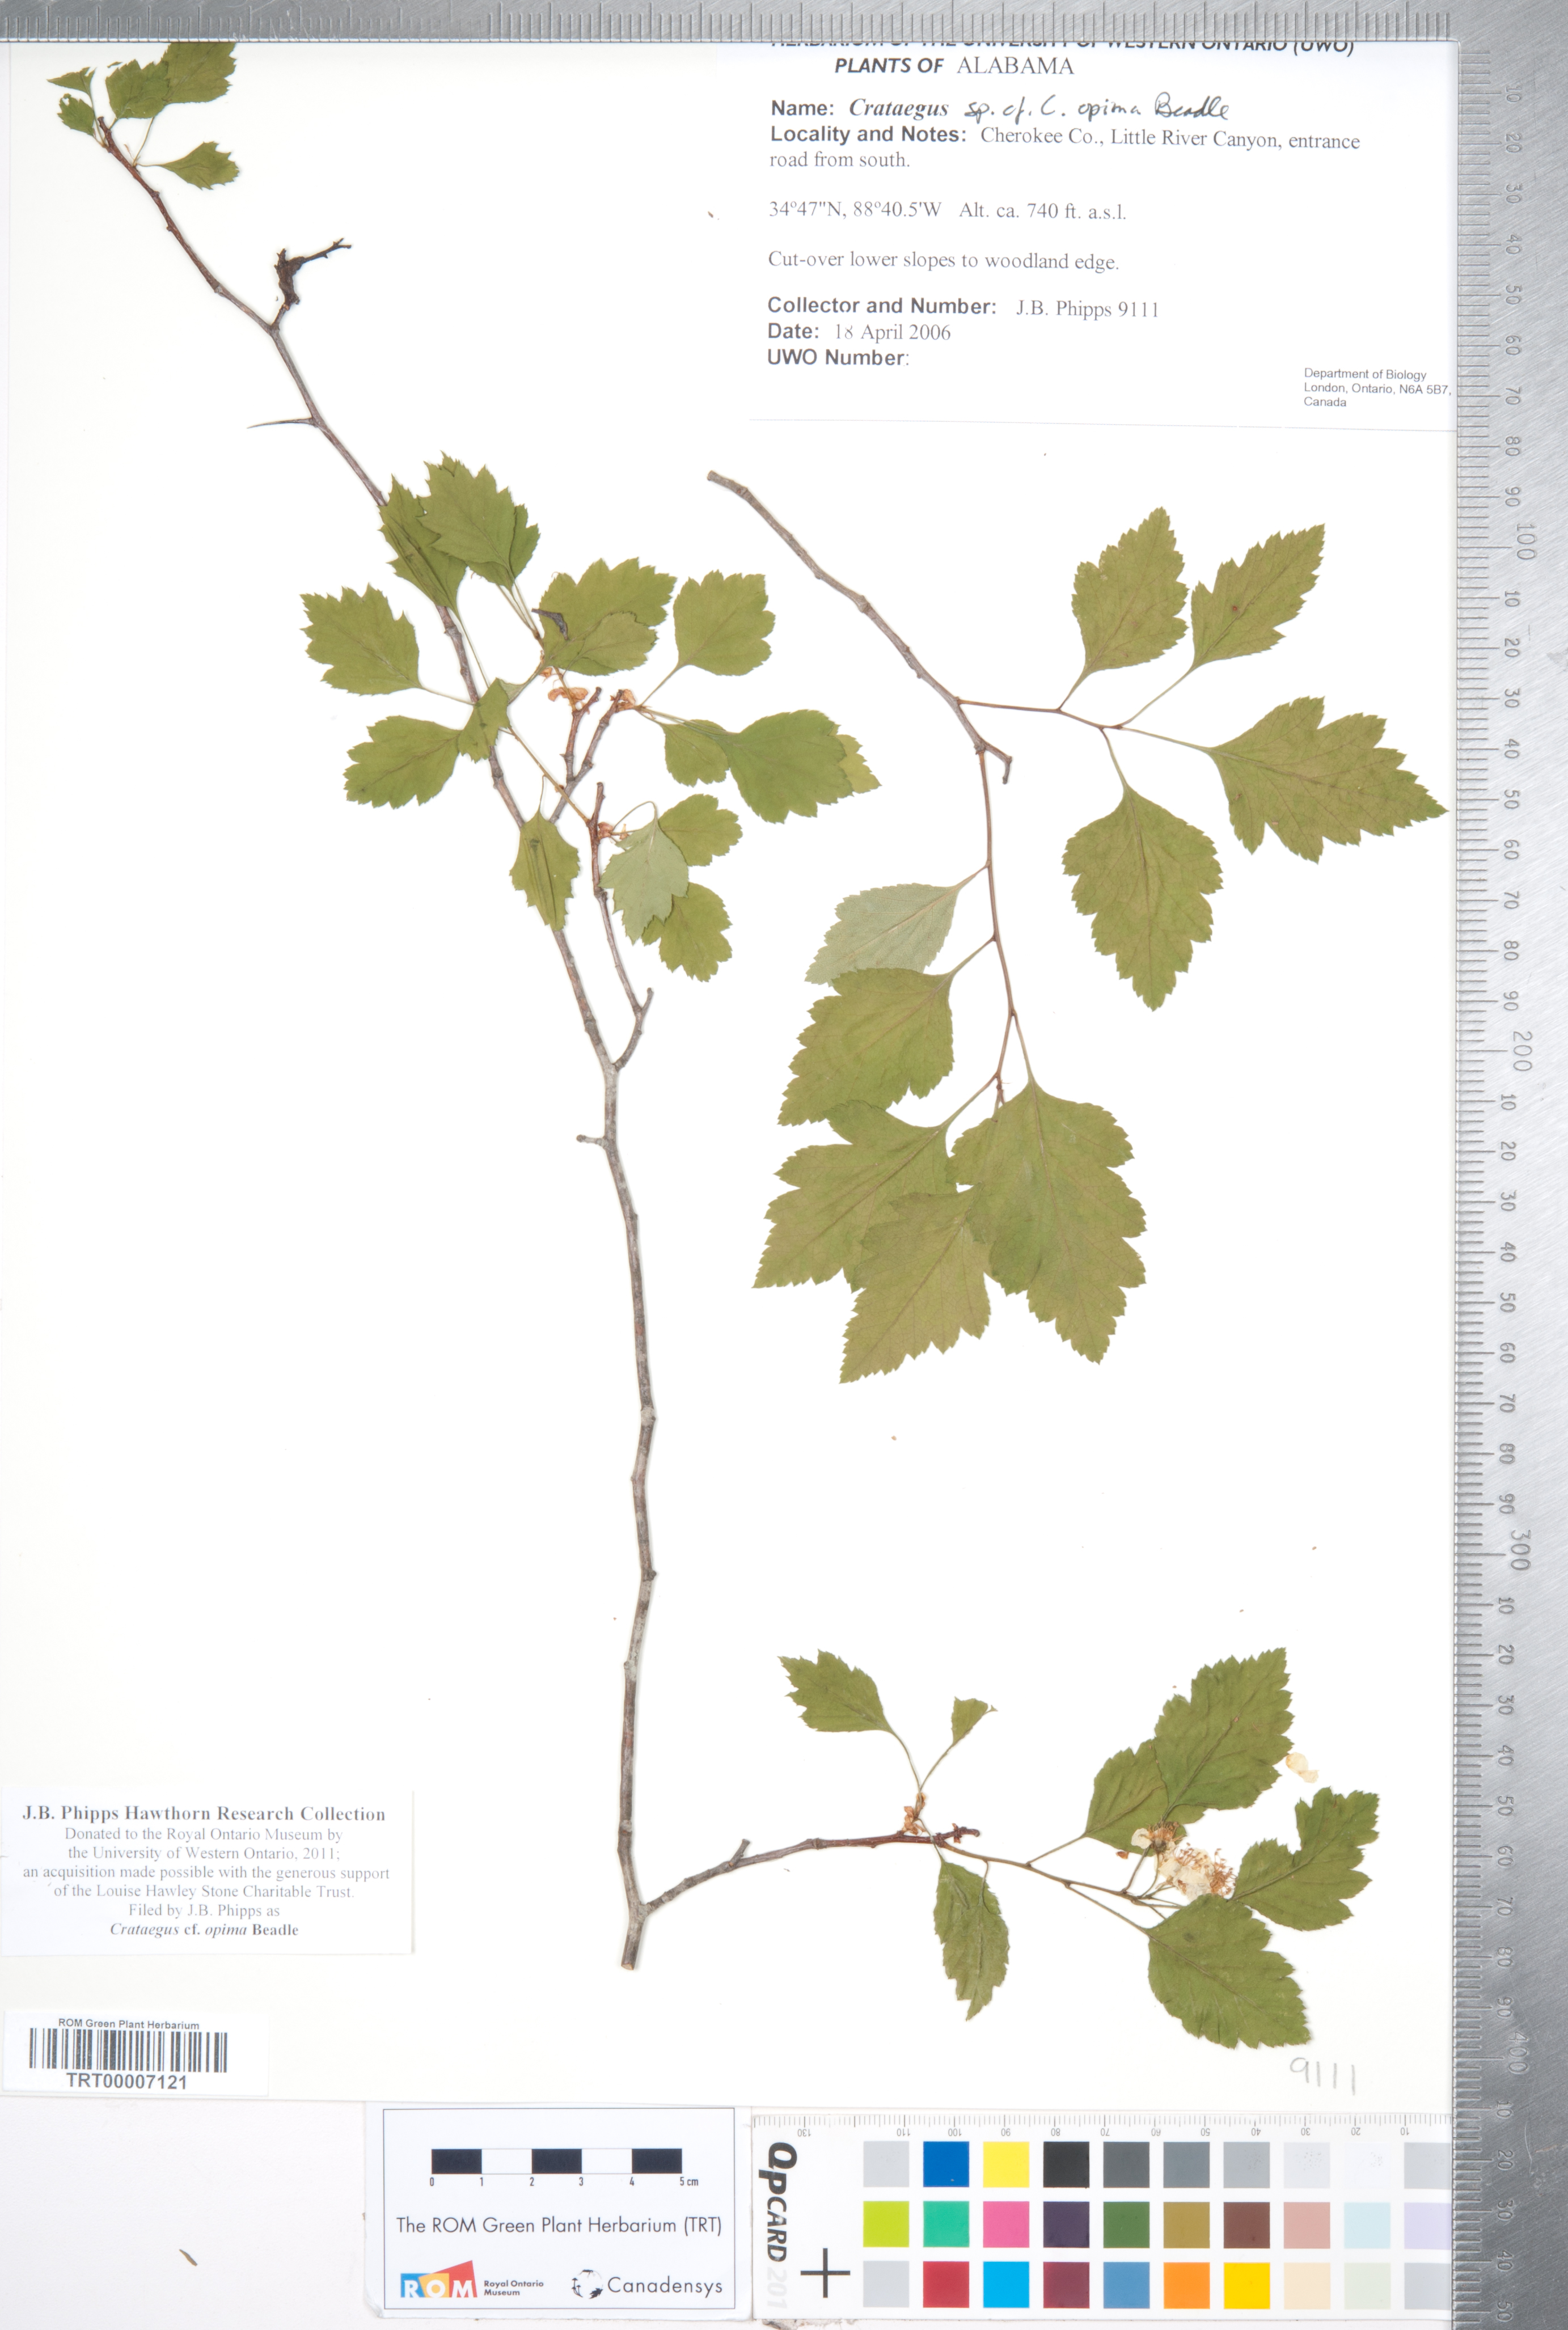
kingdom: Plantae
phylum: Tracheophyta
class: Magnoliopsida
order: Rosales
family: Rosaceae
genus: Crataegus
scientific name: Crataegus pulcherrima
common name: Beautiful hawthorn
